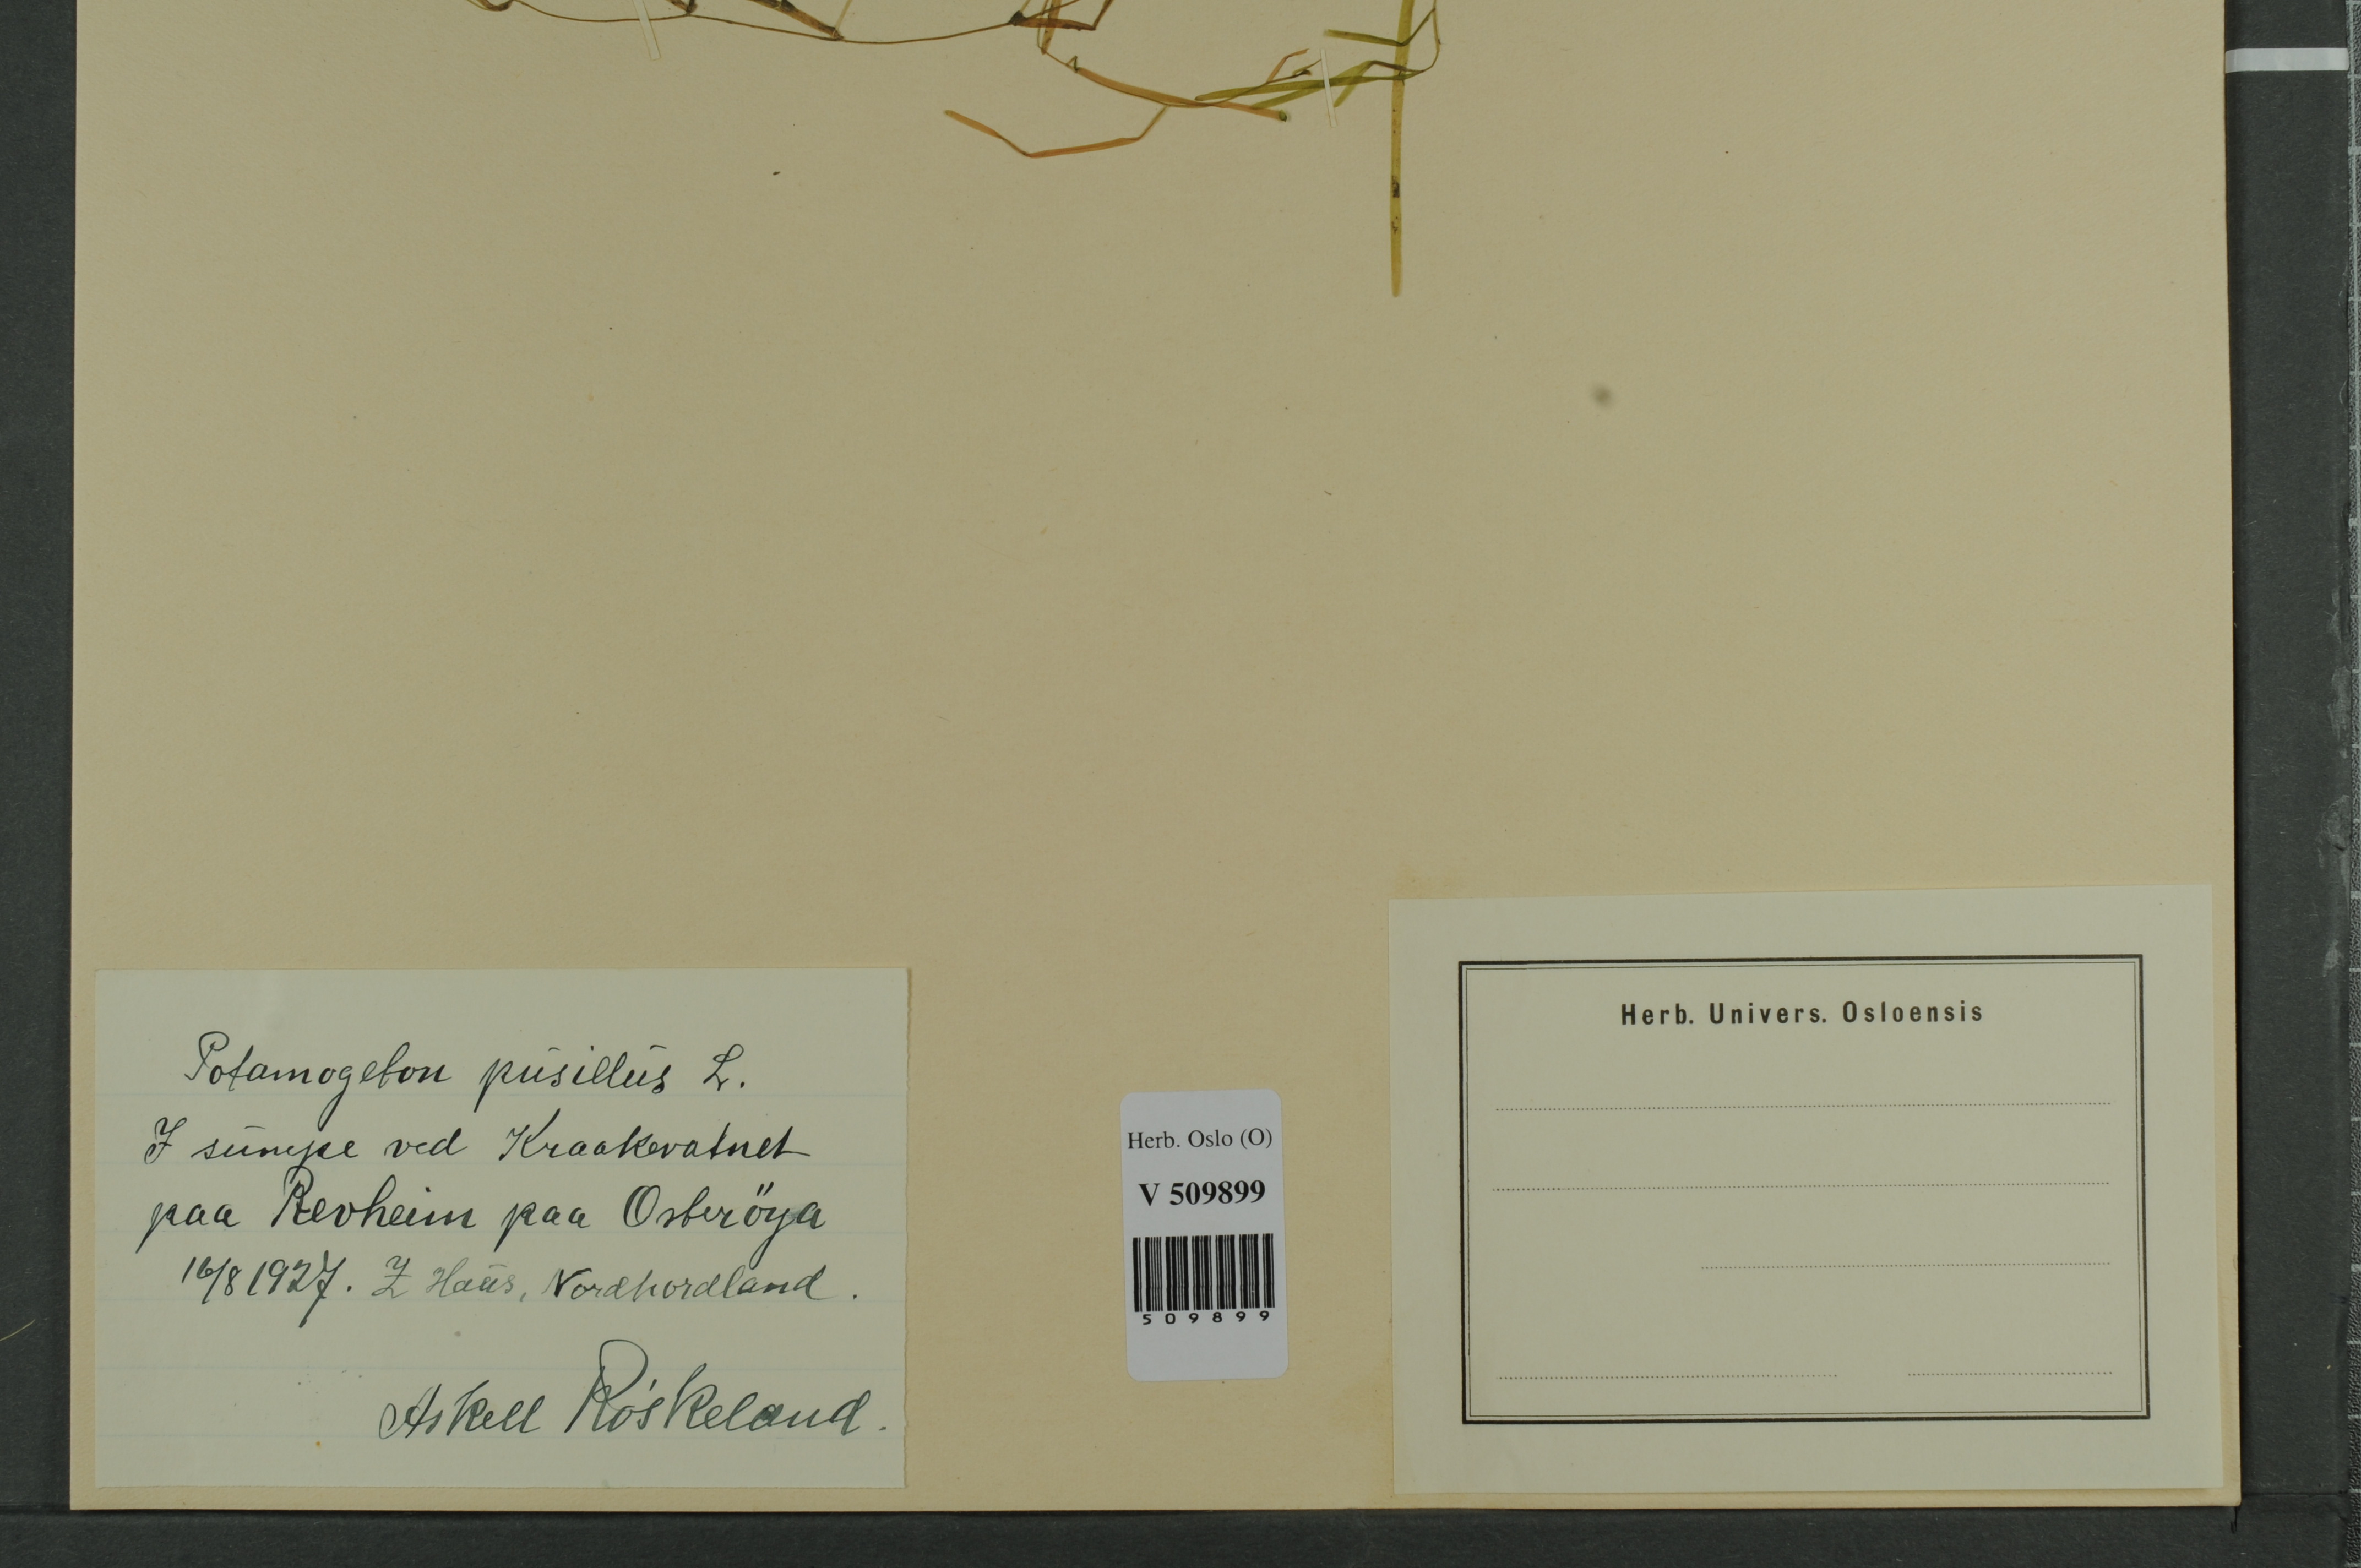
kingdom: Plantae
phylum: Tracheophyta
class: Liliopsida
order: Alismatales
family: Potamogetonaceae
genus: Potamogeton
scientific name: Potamogeton berchtoldii
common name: Small pondweed
